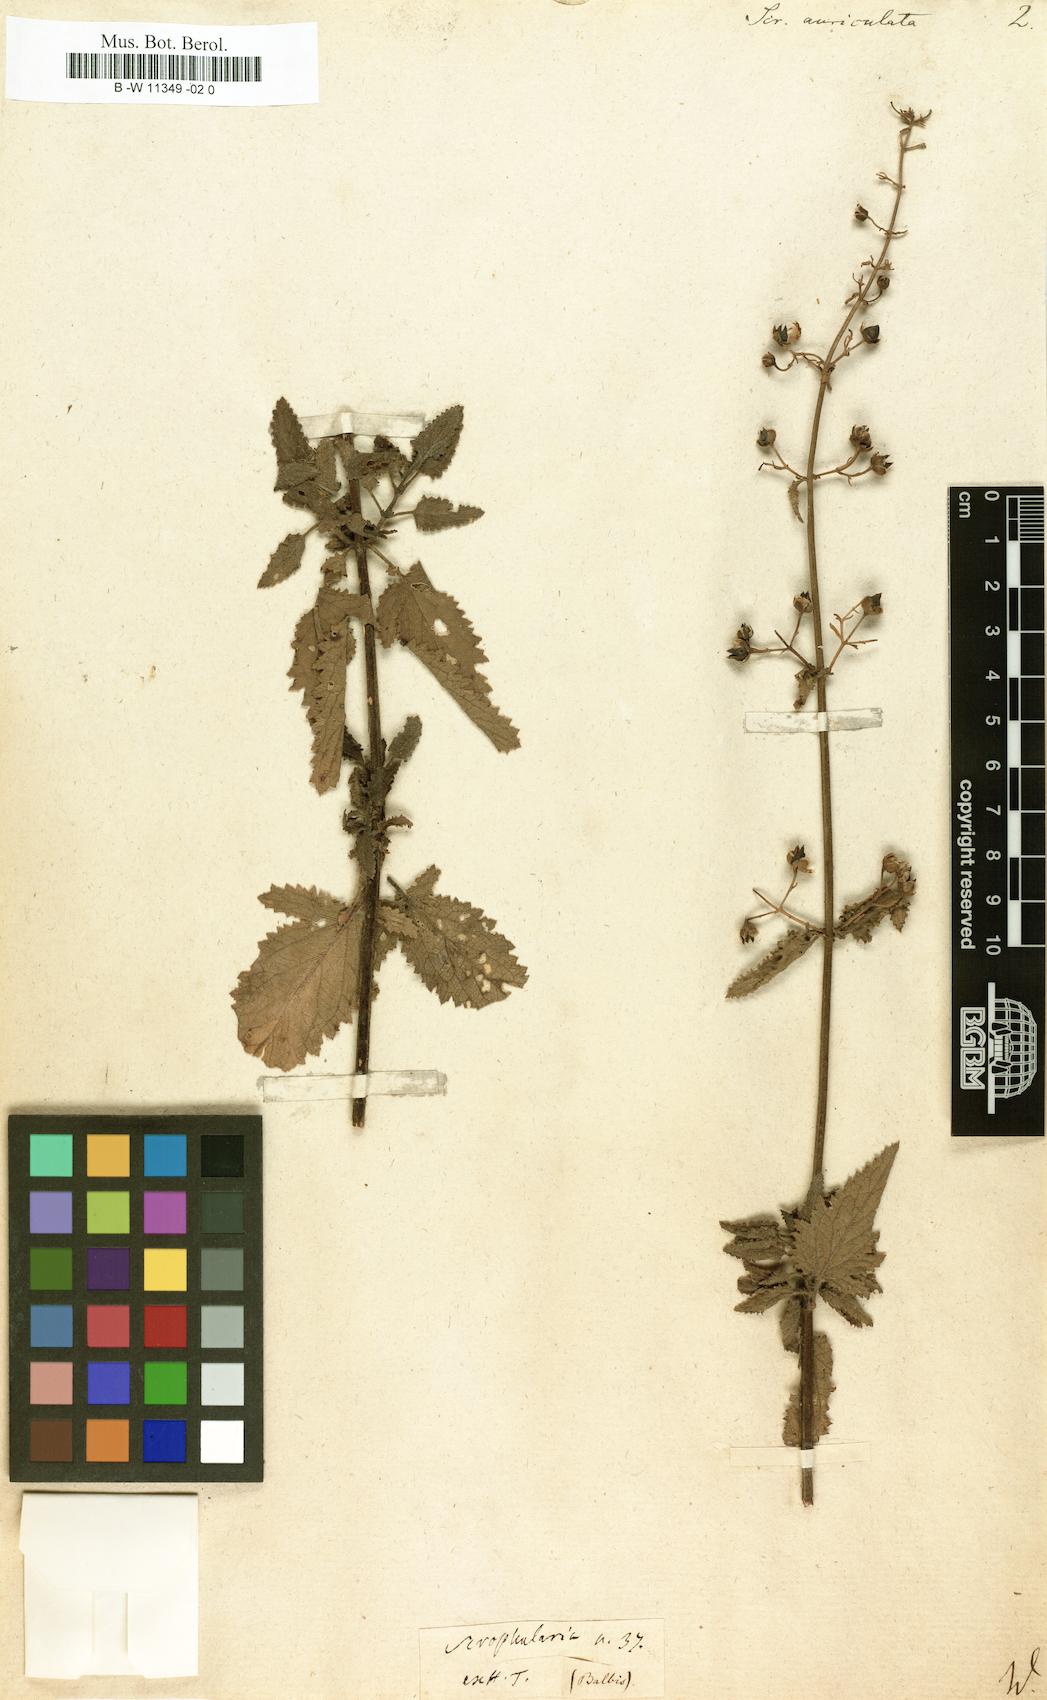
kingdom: Plantae
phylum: Tracheophyta
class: Magnoliopsida
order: Lamiales
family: Scrophulariaceae
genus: Scrophularia
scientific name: Scrophularia auriculata
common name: Water betony
